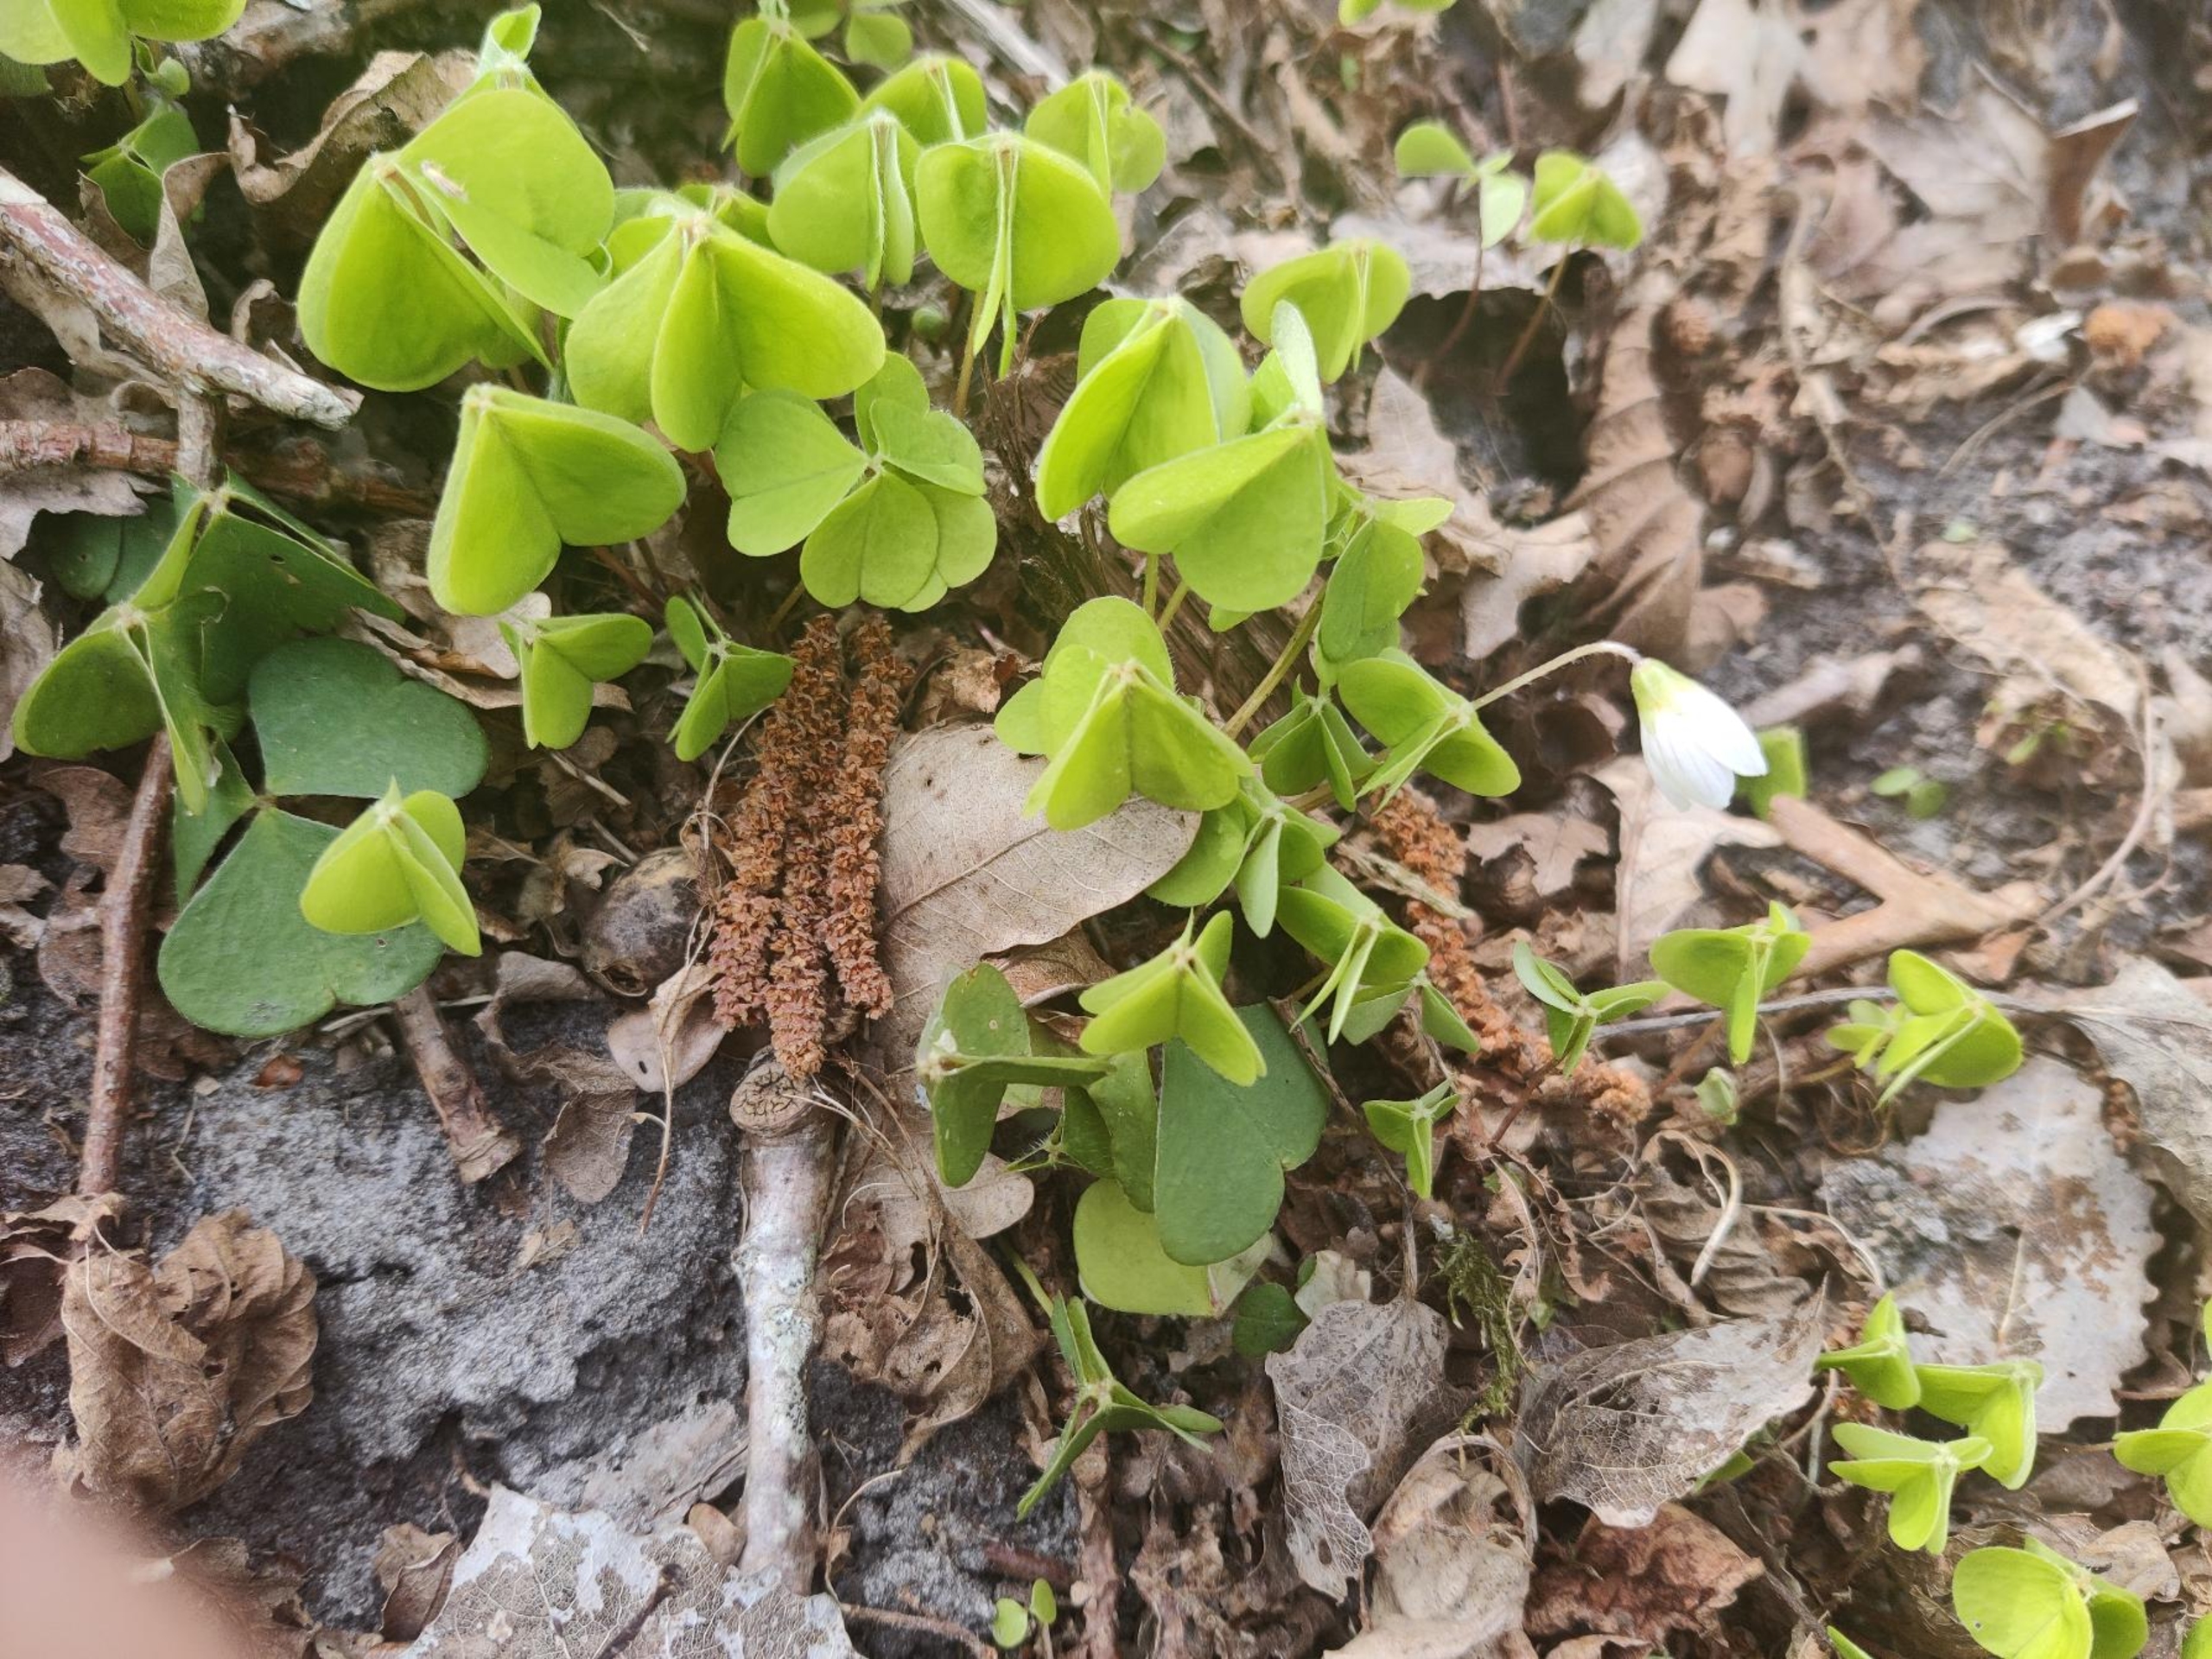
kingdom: Plantae
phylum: Tracheophyta
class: Magnoliopsida
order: Oxalidales
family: Oxalidaceae
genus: Oxalis
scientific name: Oxalis acetosella
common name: Skovsyre
